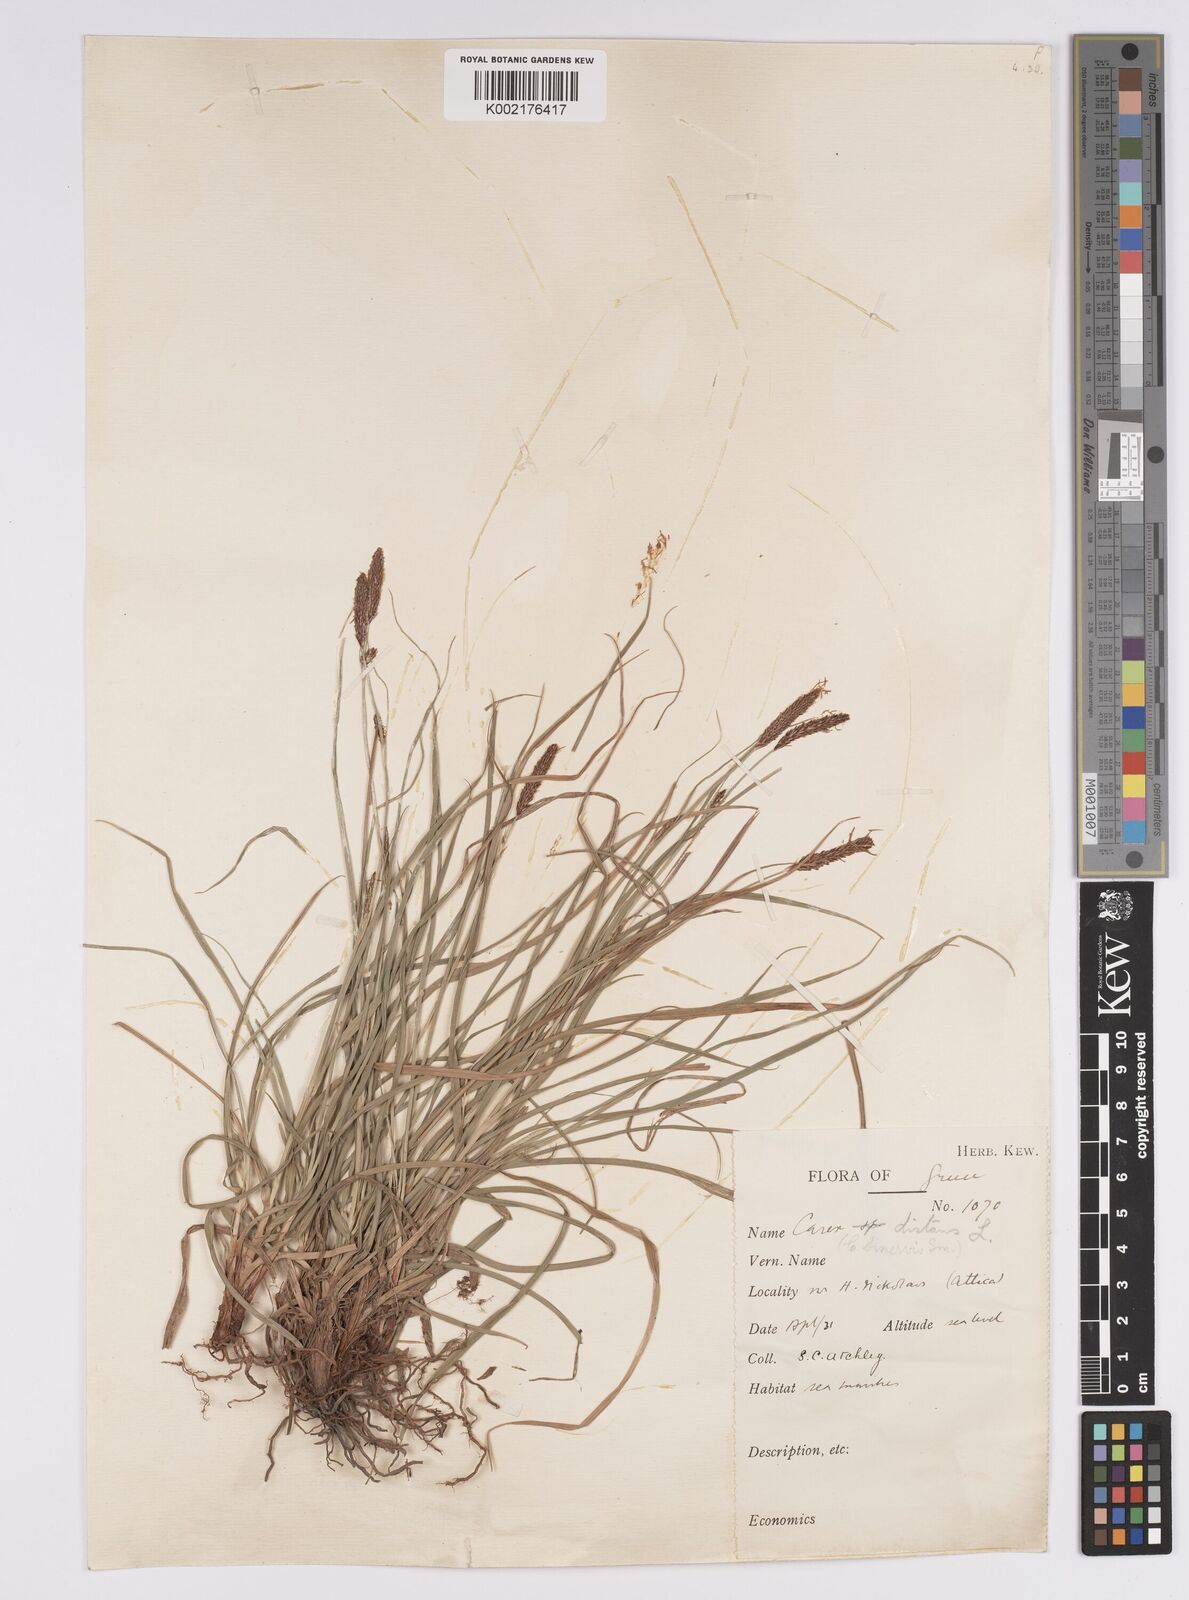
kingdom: Plantae
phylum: Tracheophyta
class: Liliopsida
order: Poales
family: Cyperaceae
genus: Carex
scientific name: Carex distans
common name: Distant sedge
